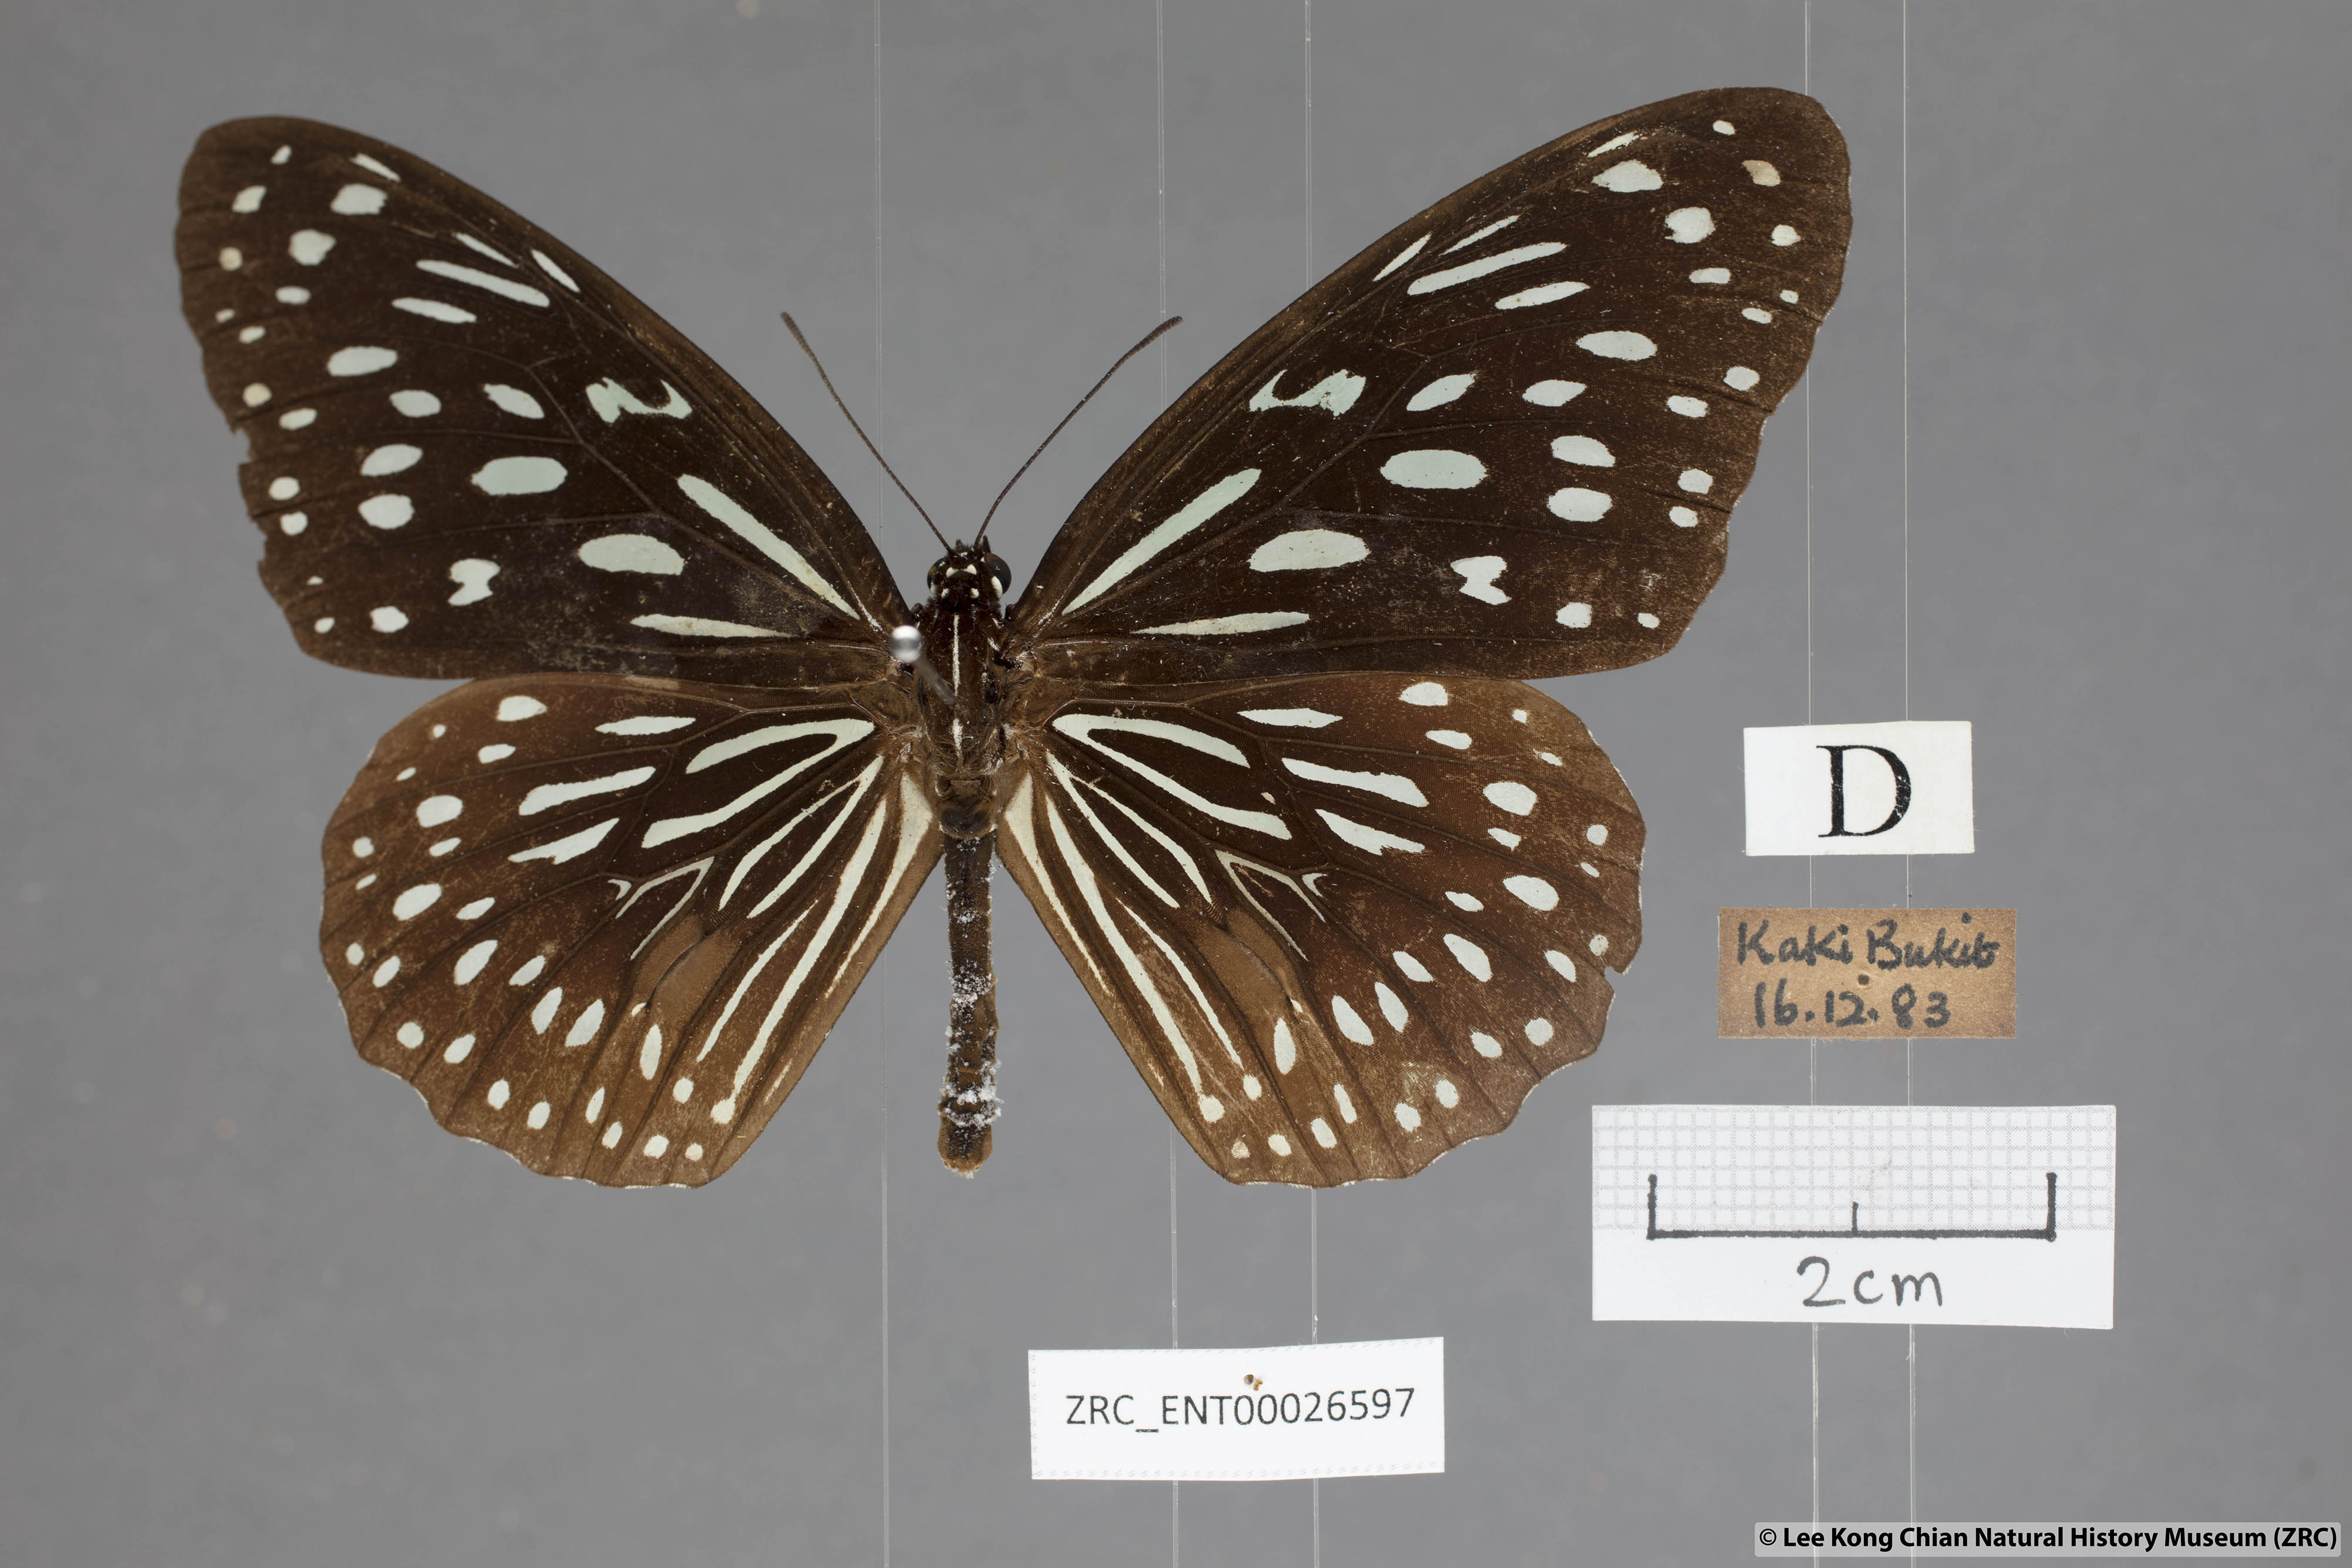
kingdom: Animalia
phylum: Arthropoda
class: Insecta
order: Lepidoptera
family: Nymphalidae
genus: Tirumala
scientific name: Tirumala septentrionis
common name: Dark blue tiger butterfly
